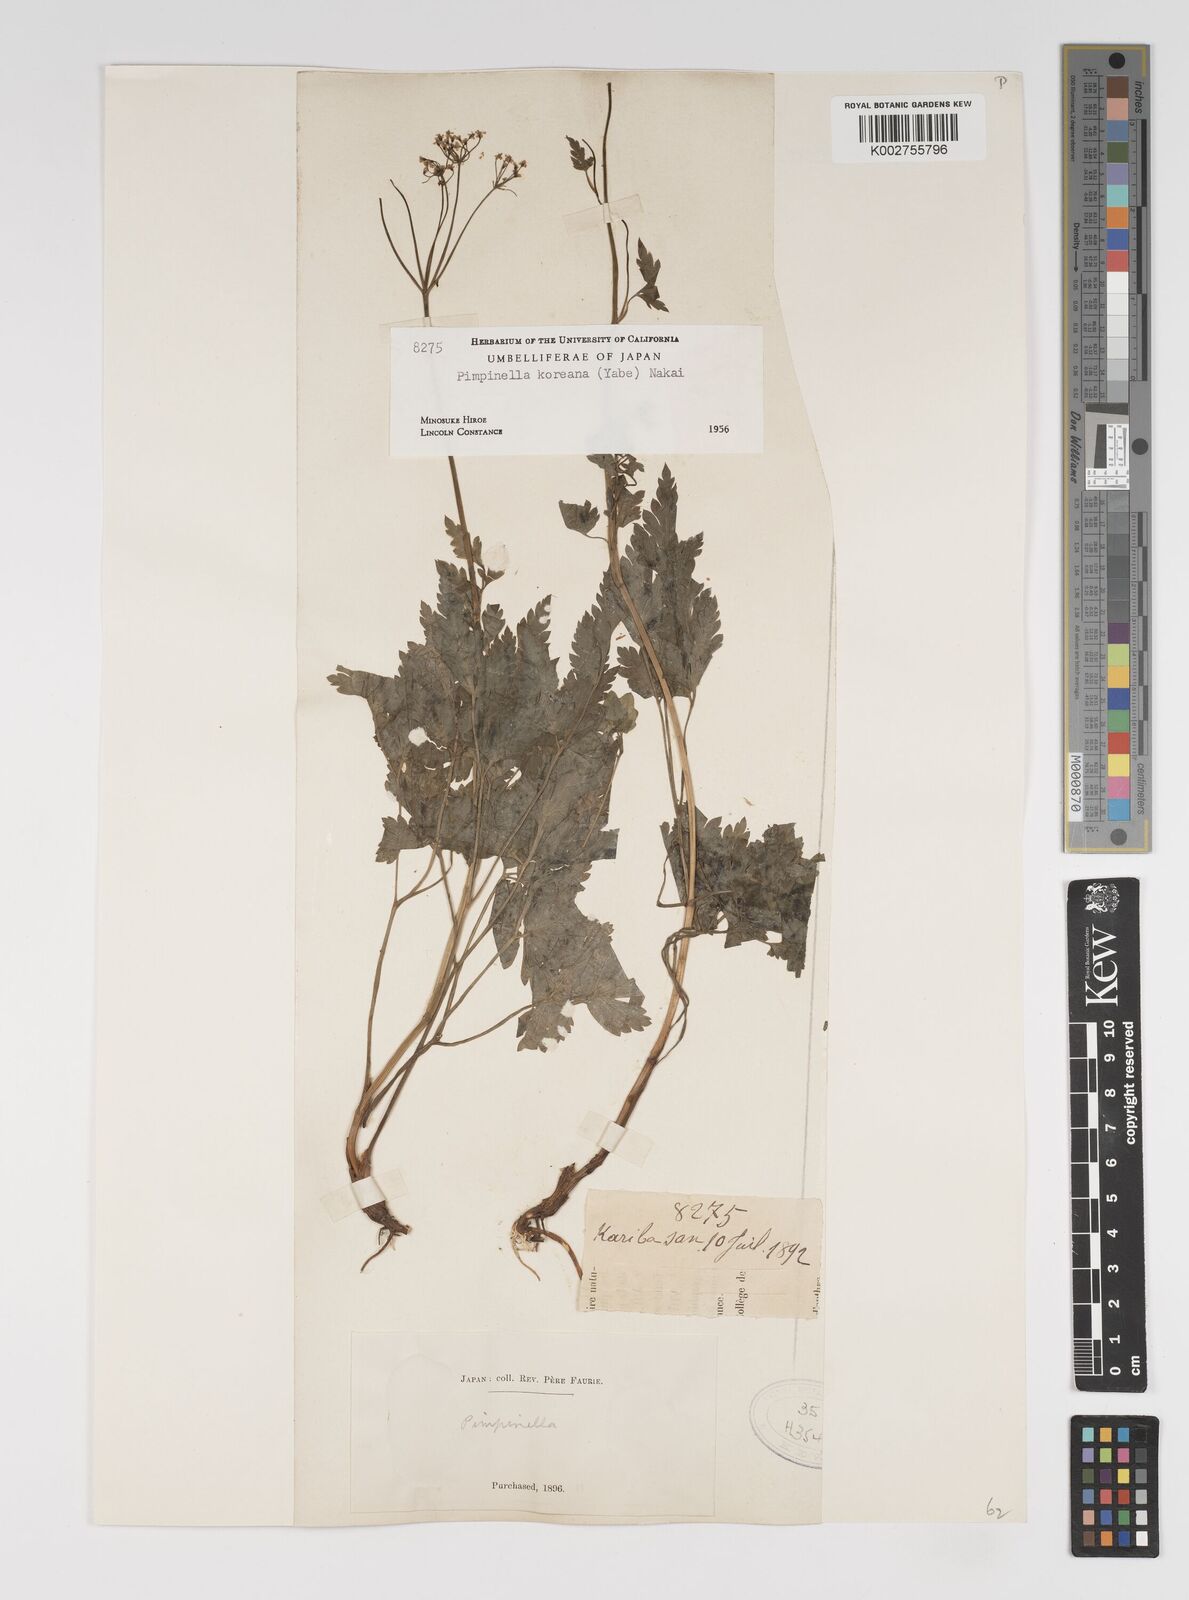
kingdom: Plantae
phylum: Tracheophyta
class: Magnoliopsida
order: Apiales
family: Apiaceae
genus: Spuriopimpinella
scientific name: Spuriopimpinella brachycarpa
